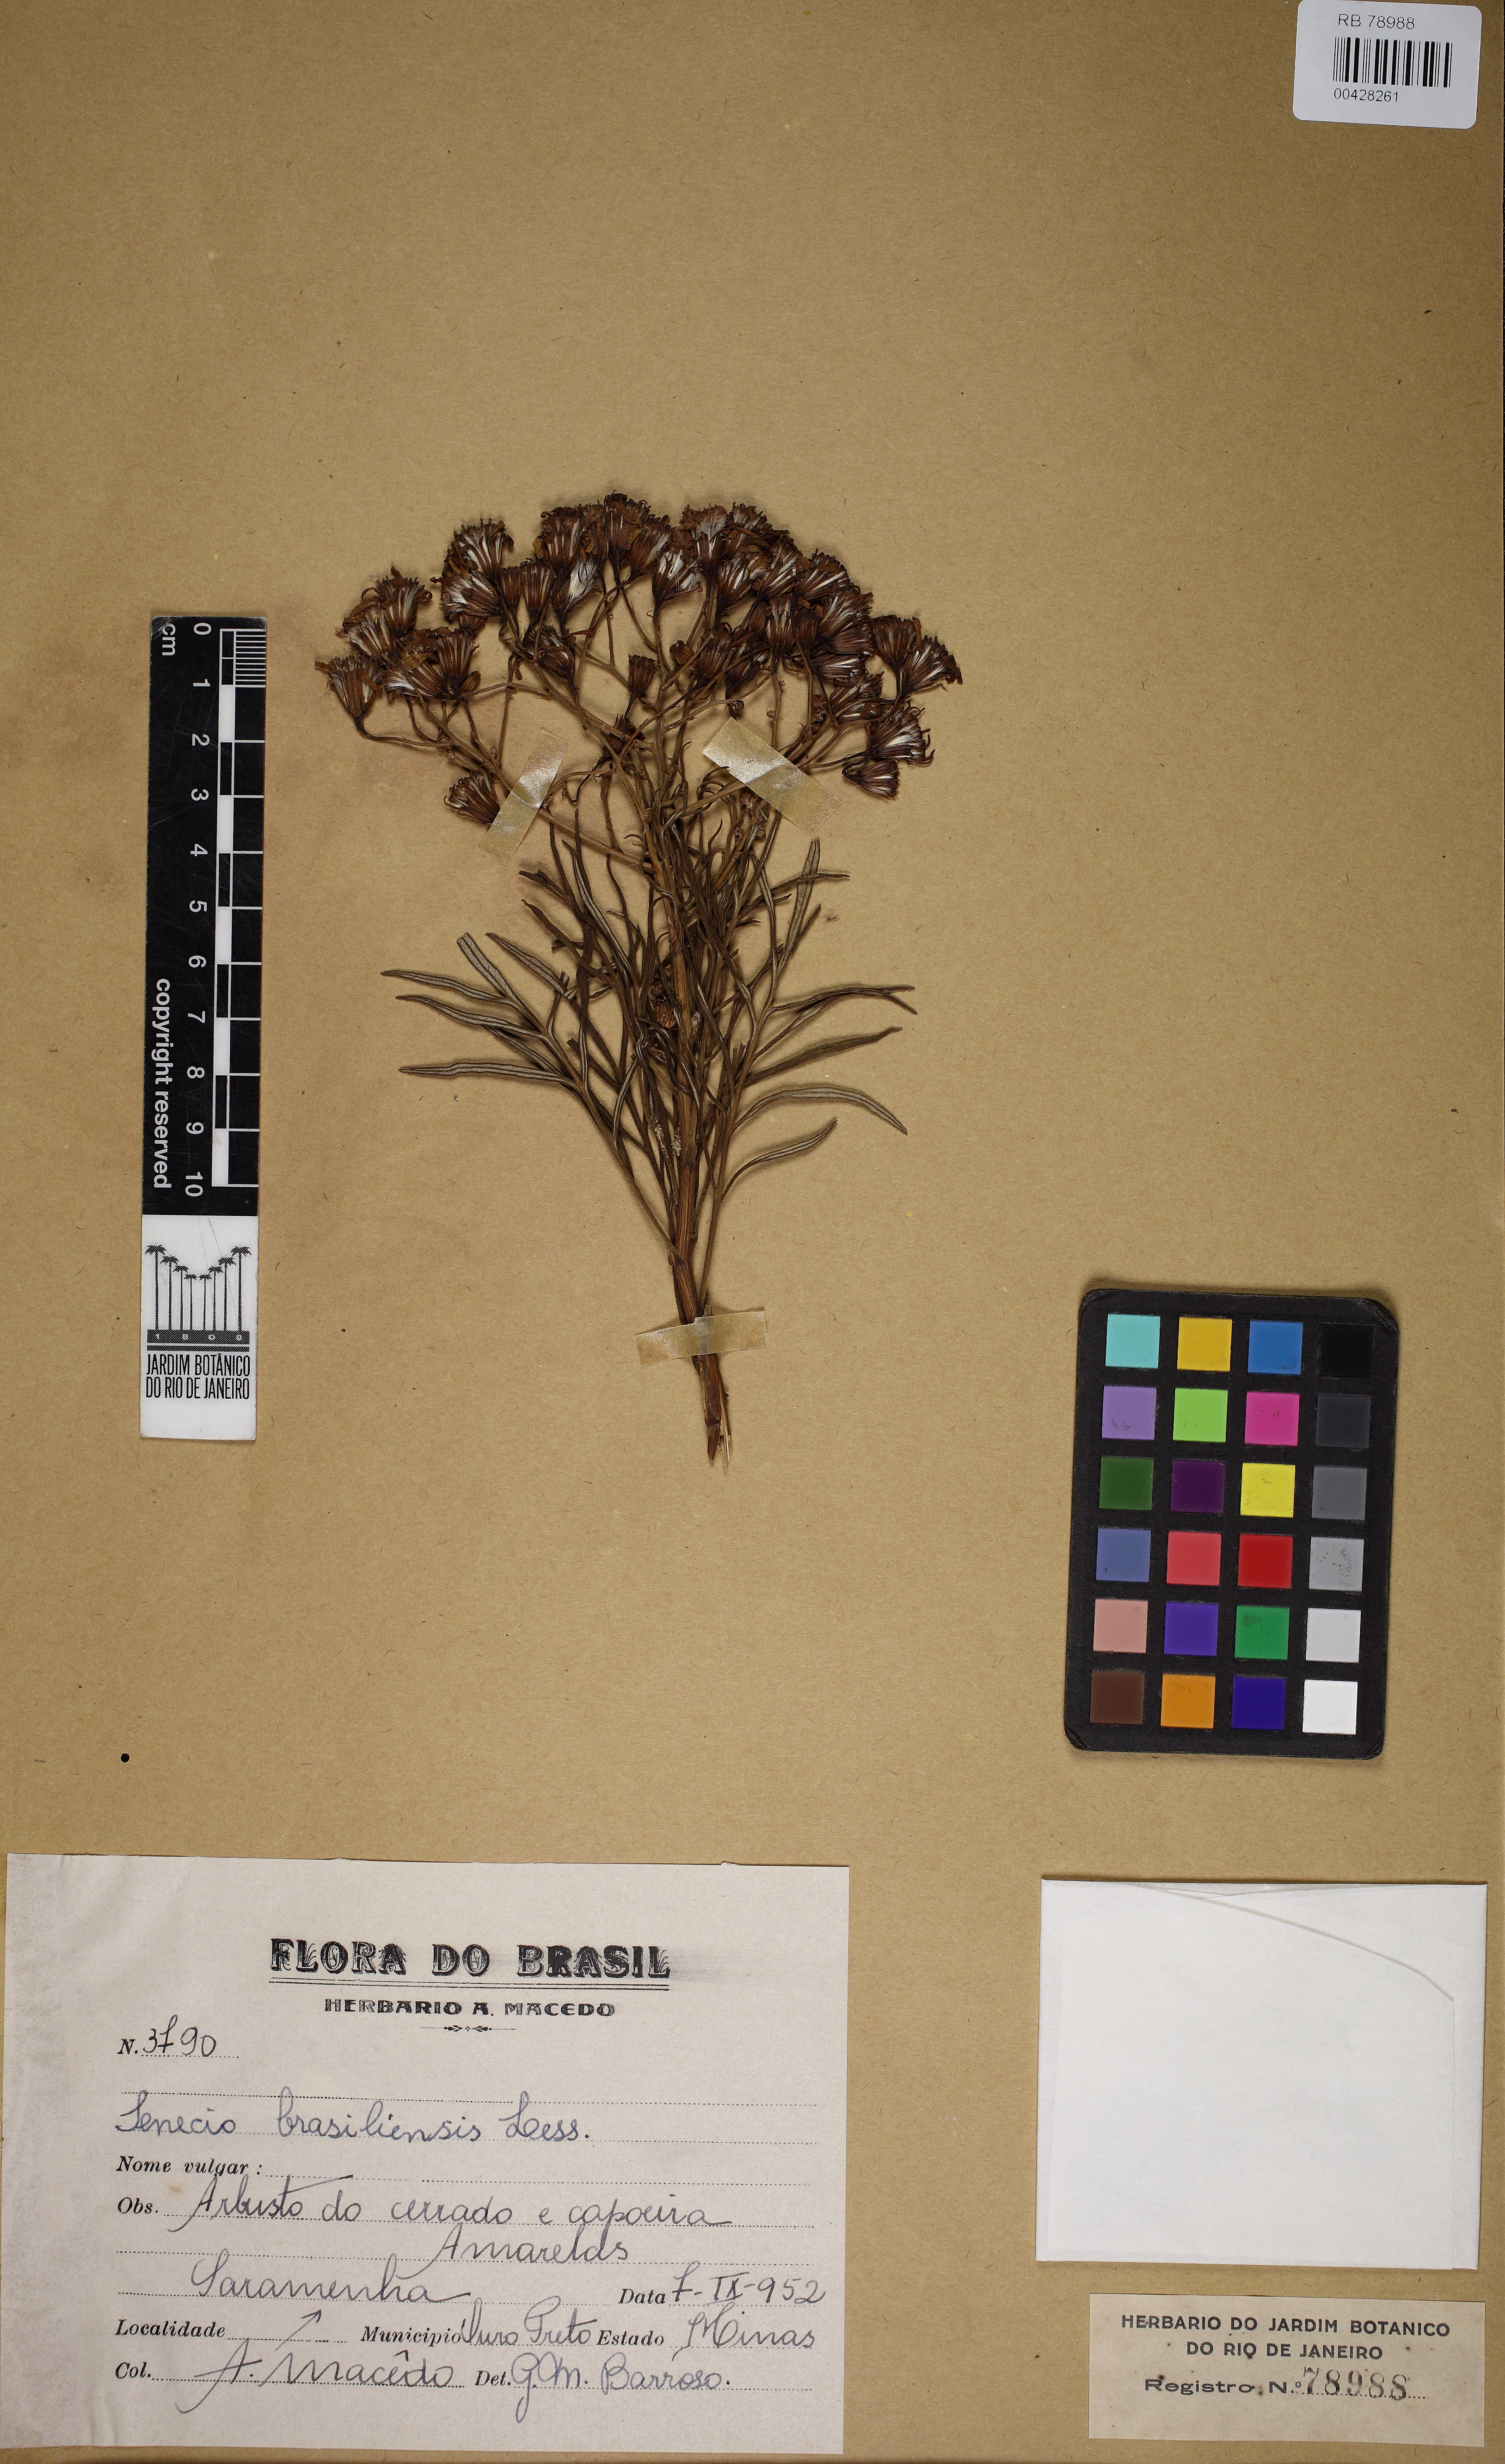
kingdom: Plantae
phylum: Tracheophyta
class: Magnoliopsida
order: Asterales
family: Asteraceae
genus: Senecio
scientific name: Senecio brasiliensis
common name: Hemp-leaf ragwort
